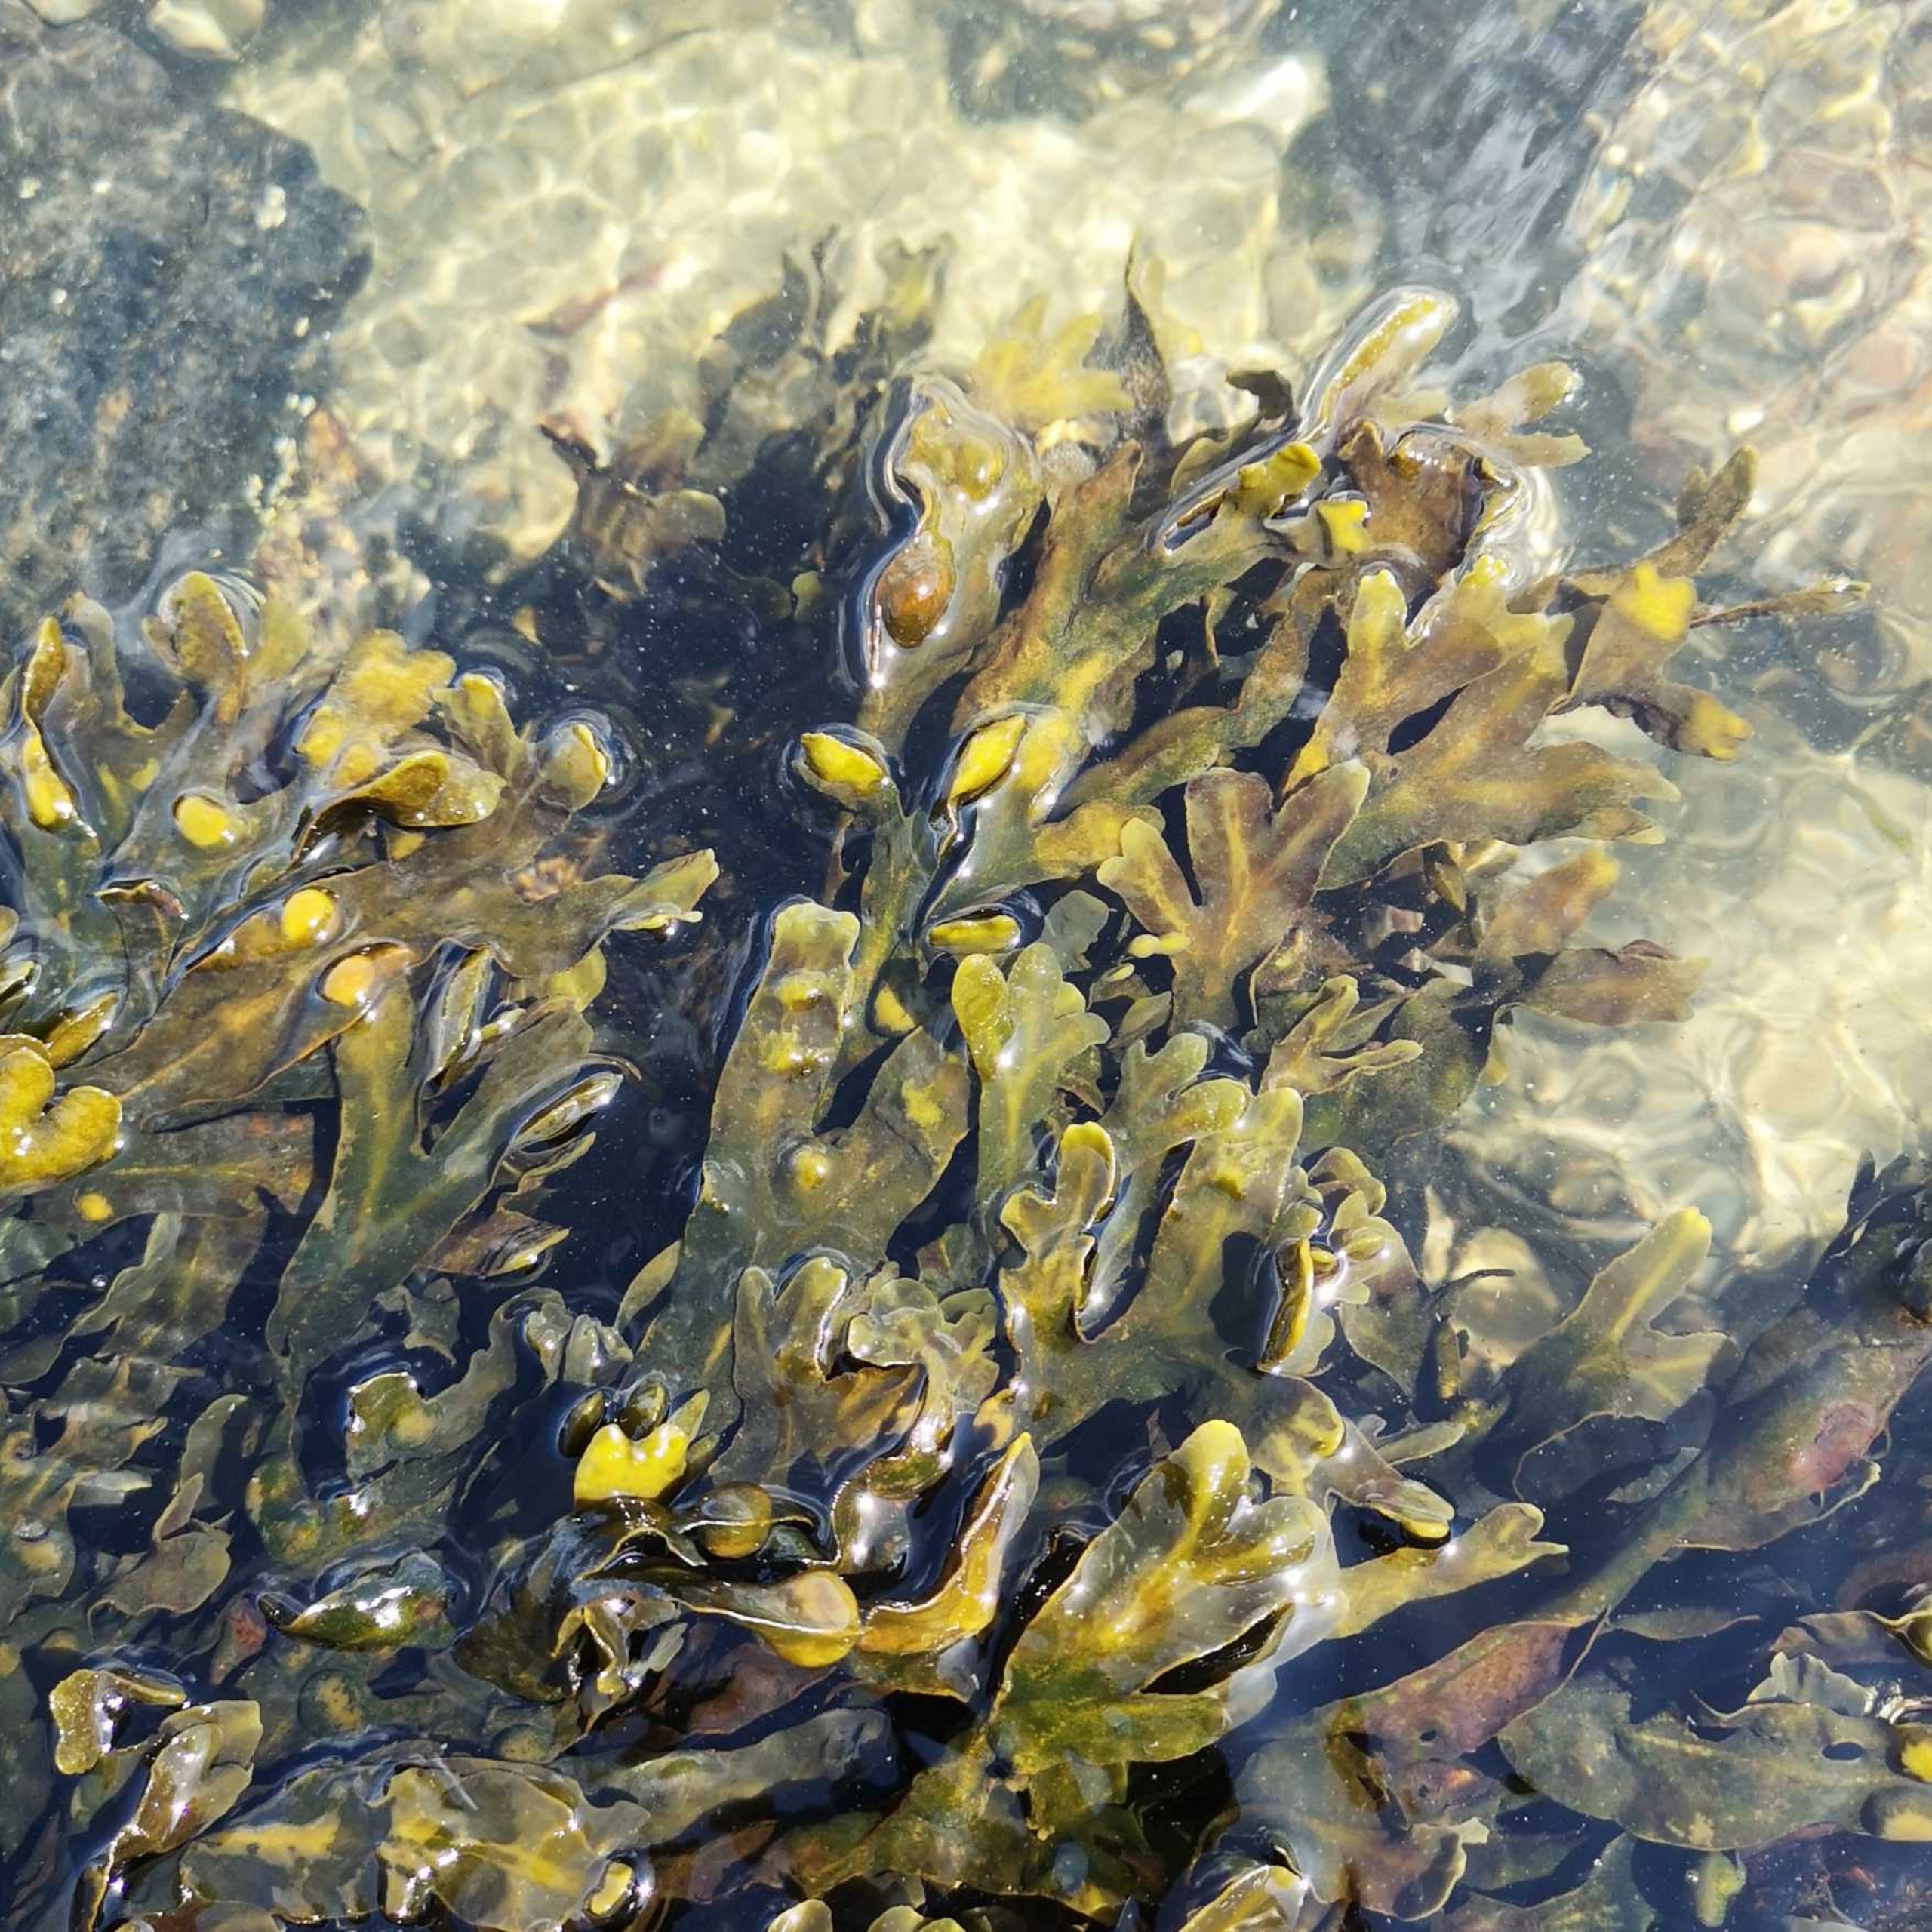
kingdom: Chromista
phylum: Ochrophyta
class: Phaeophyceae
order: Fucales
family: Fucaceae
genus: Fucus
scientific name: Fucus vesiculosus
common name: Blæretang
